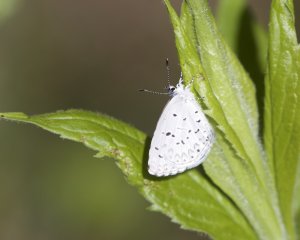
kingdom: Animalia
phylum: Arthropoda
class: Insecta
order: Lepidoptera
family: Lycaenidae
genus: Celastrina
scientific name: Celastrina lucia
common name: Northern Spring Azure
